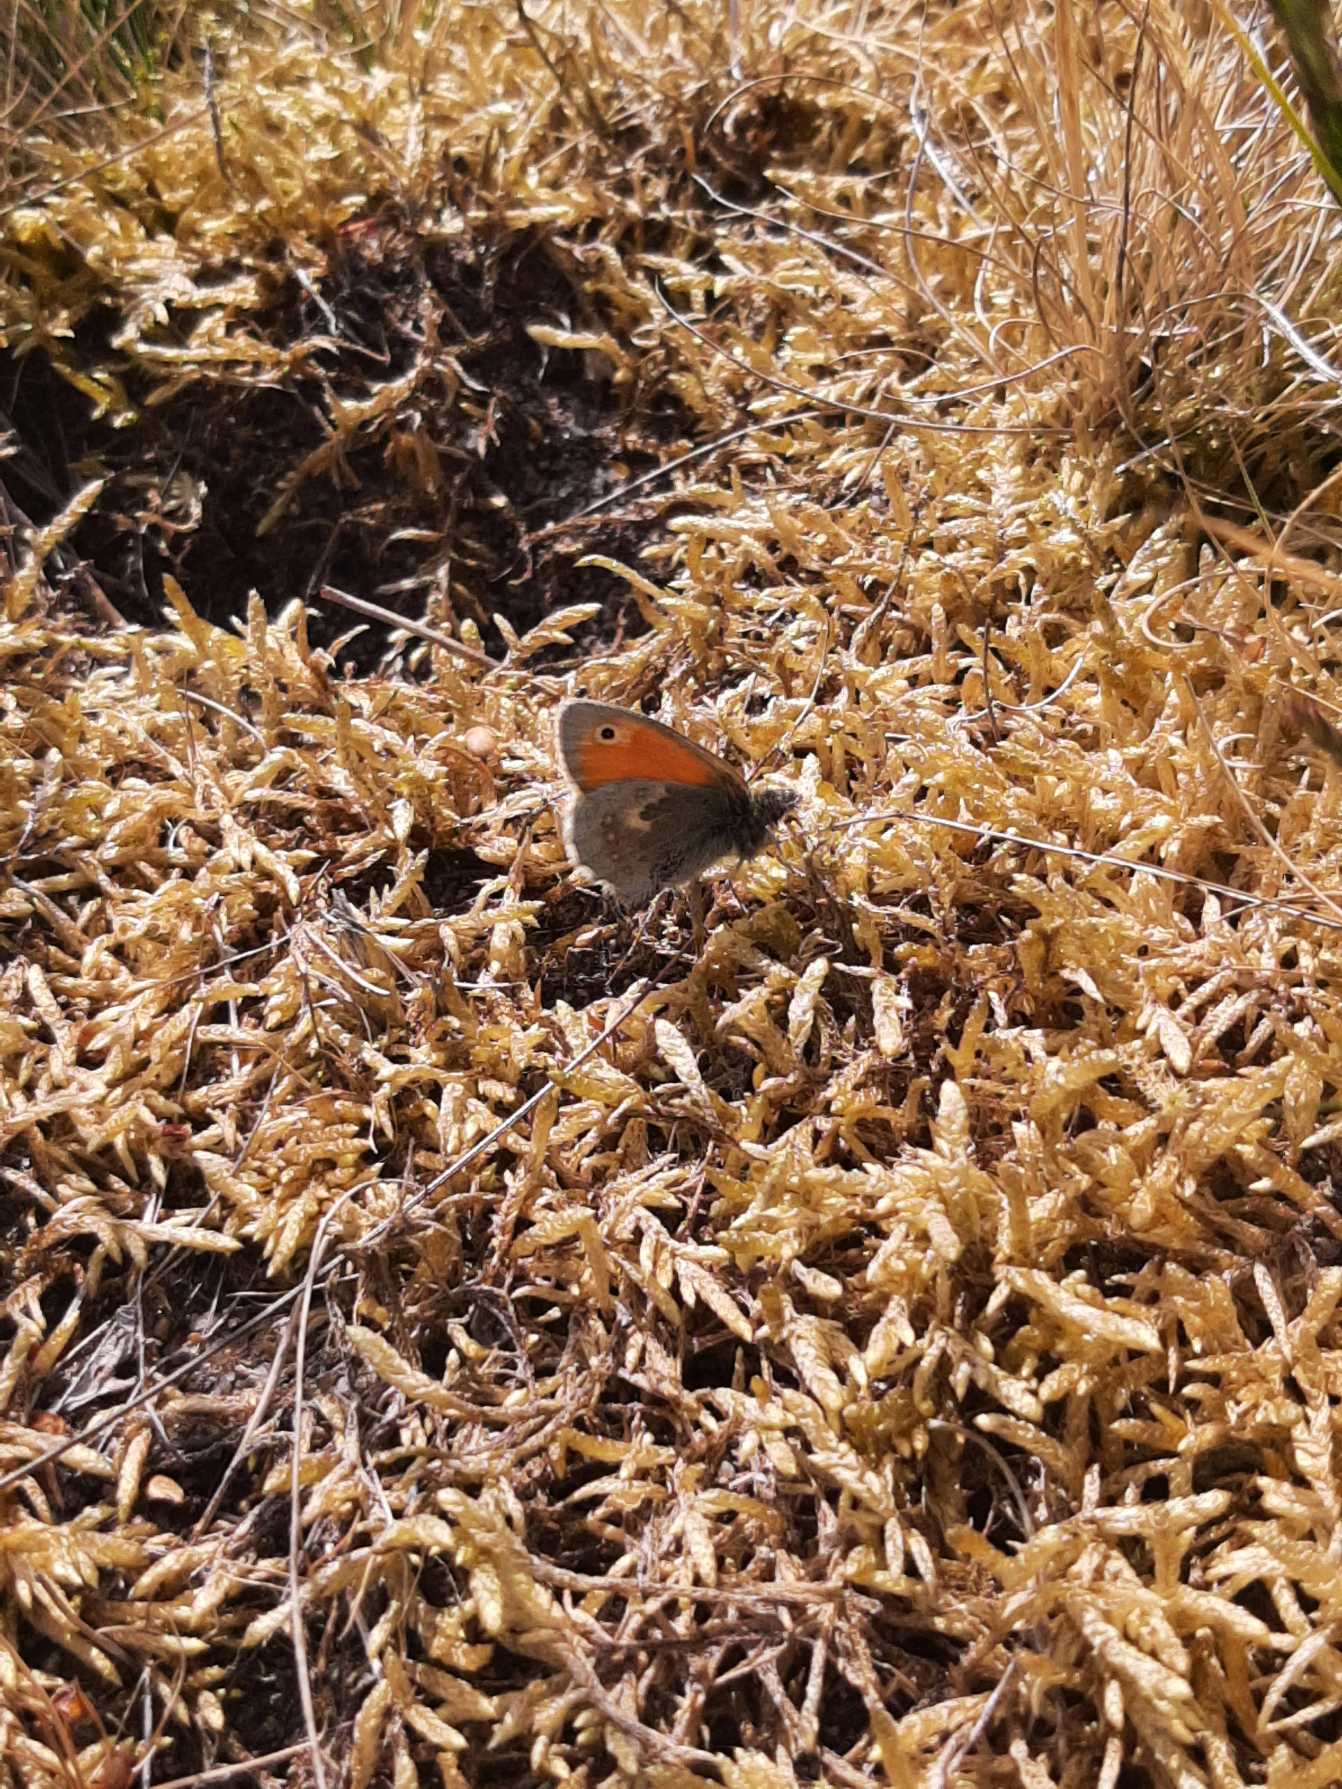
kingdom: Animalia
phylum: Arthropoda
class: Insecta
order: Lepidoptera
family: Nymphalidae
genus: Coenonympha
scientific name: Coenonympha pamphilus
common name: Okkergul randøje
